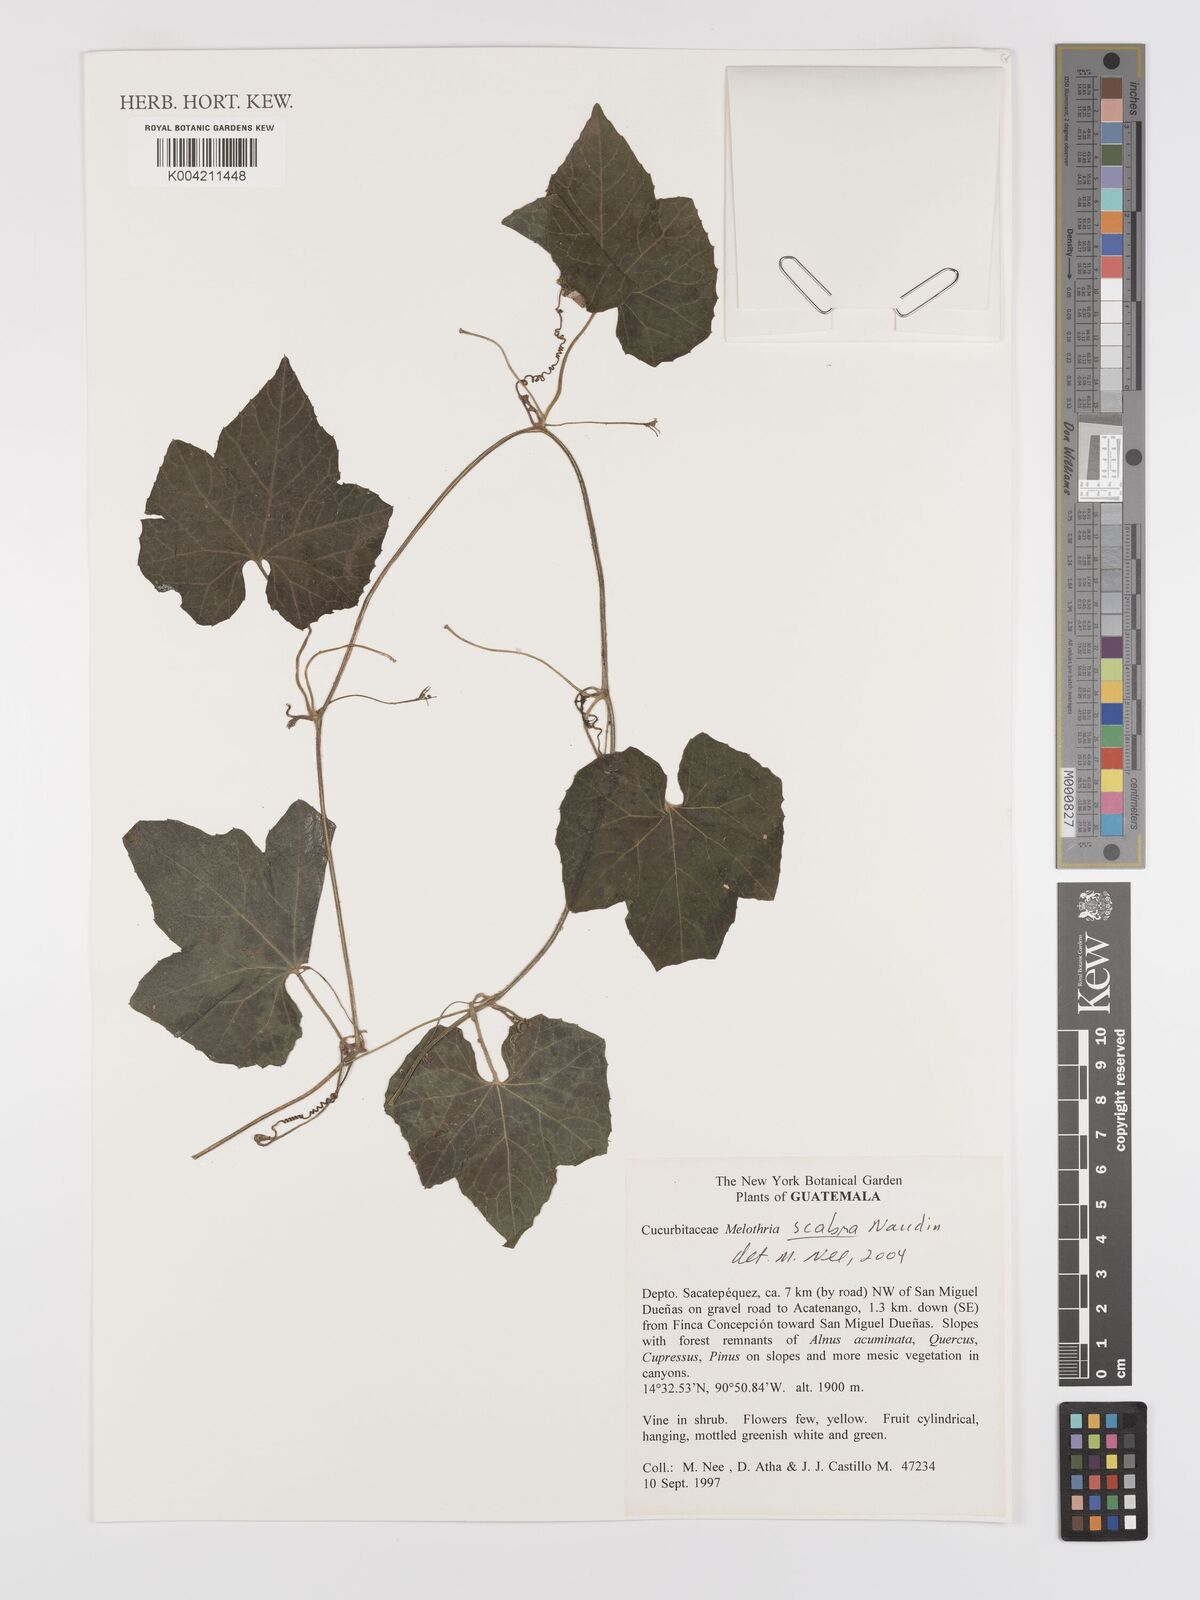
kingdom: Plantae
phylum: Tracheophyta
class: Magnoliopsida
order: Cucurbitales
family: Cucurbitaceae
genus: Melothria
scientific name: Melothria scabra
